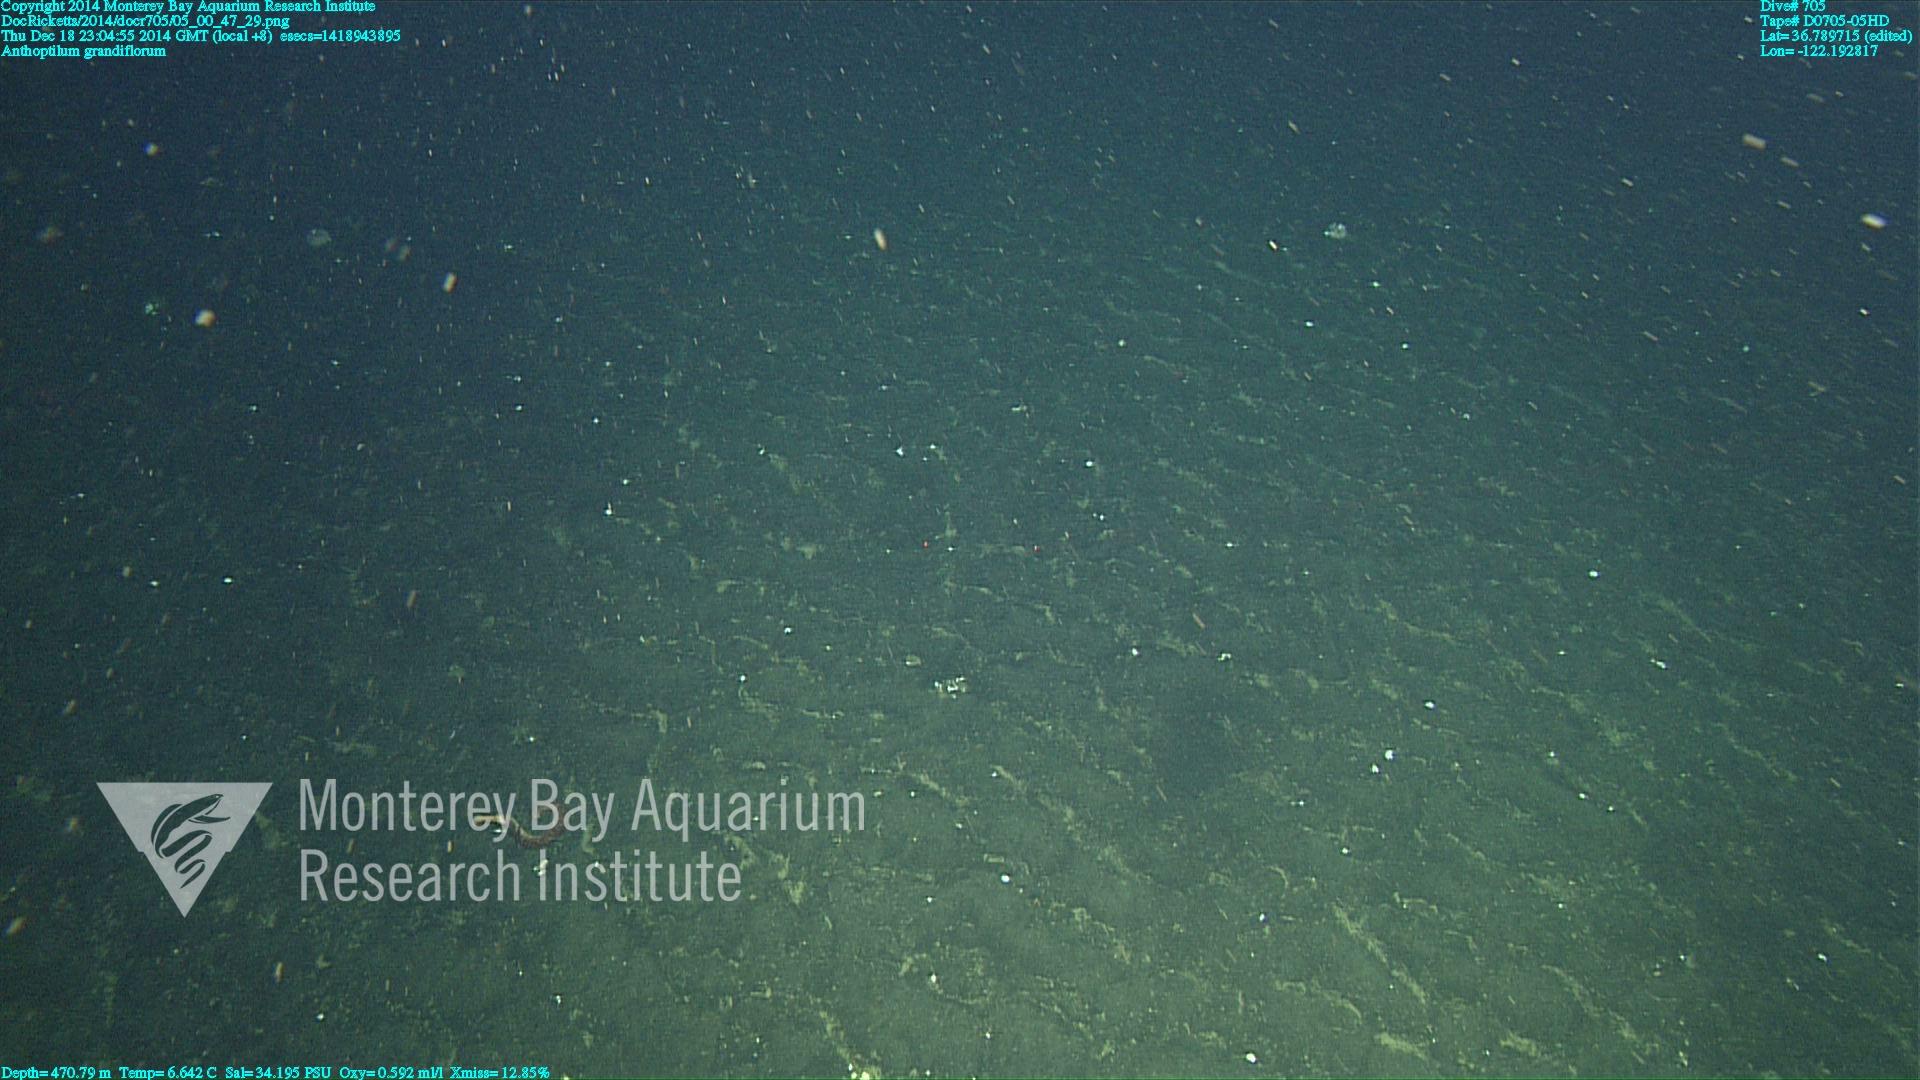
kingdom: Animalia
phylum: Cnidaria
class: Anthozoa
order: Scleralcyonacea
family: Anthoptilidae
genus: Anthoptilum
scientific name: Anthoptilum grandiflorum
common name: Full-flowered sea pen
